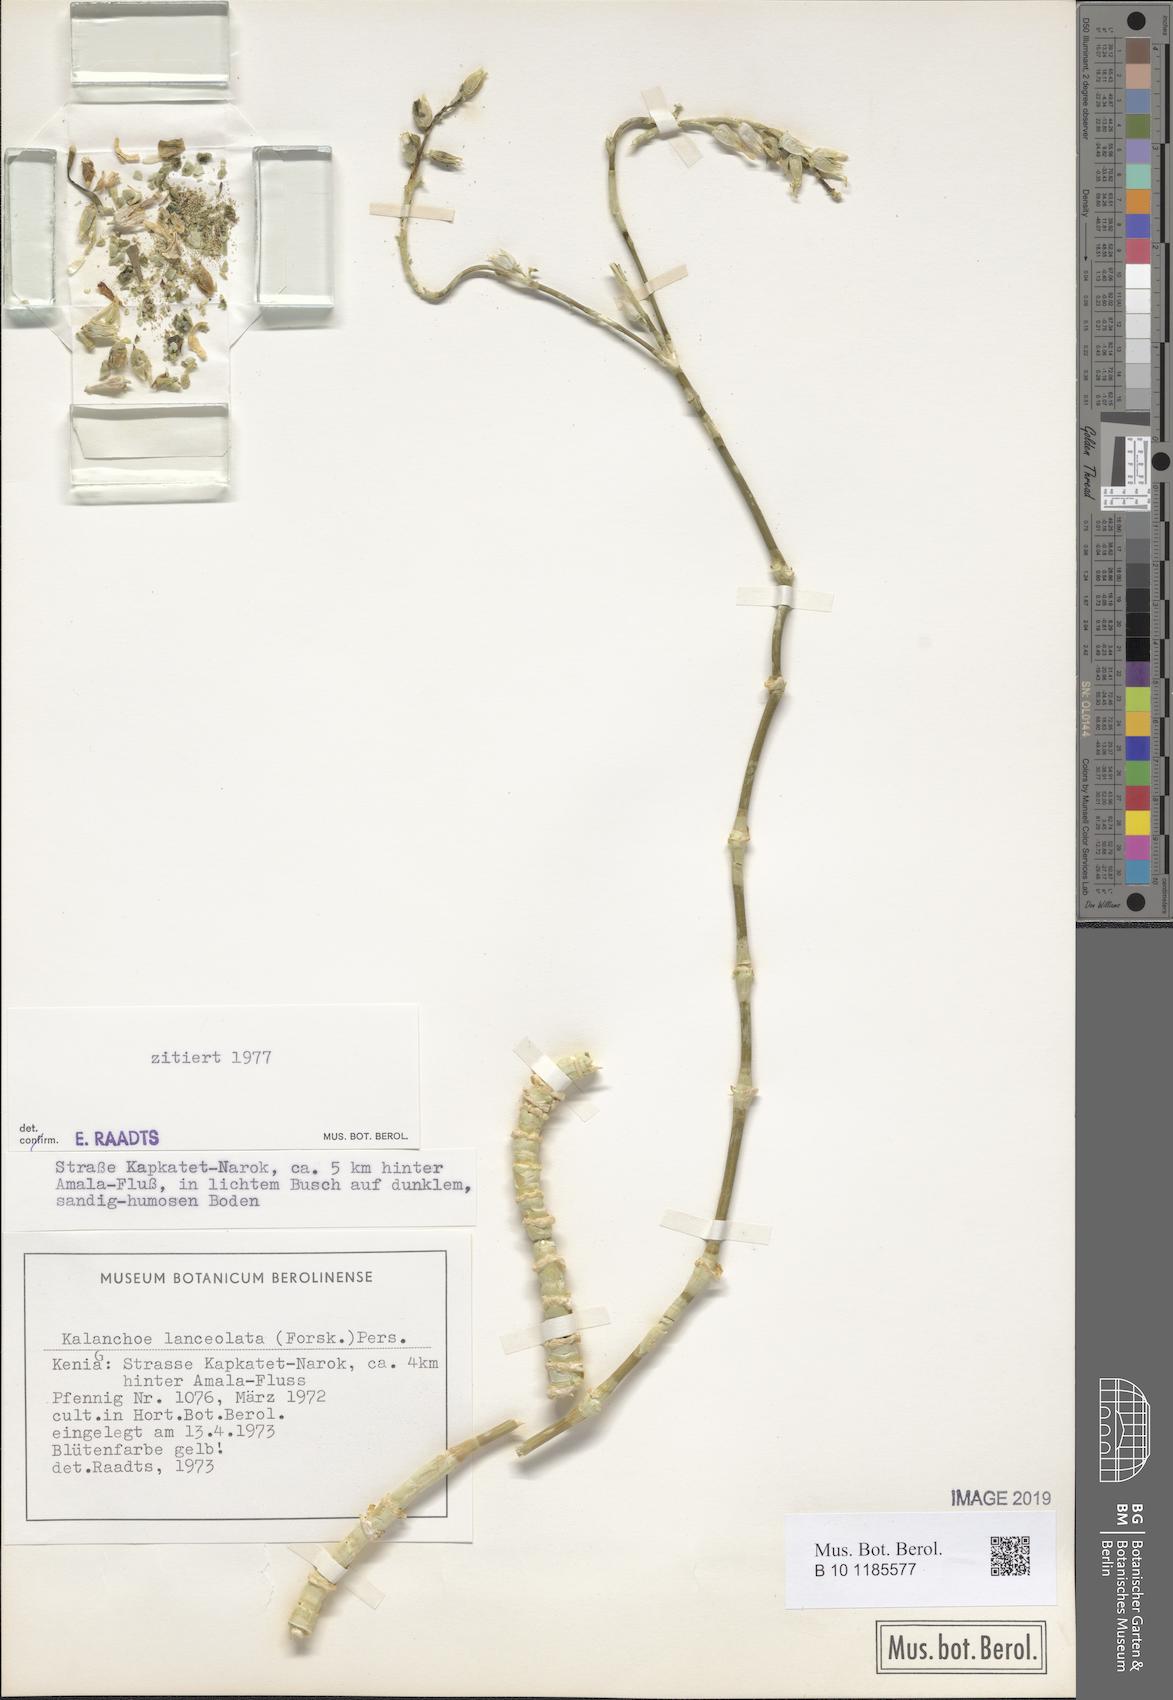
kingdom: Plantae
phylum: Tracheophyta
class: Magnoliopsida
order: Saxifragales
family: Crassulaceae
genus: Kalanchoe
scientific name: Kalanchoe lanceolata
